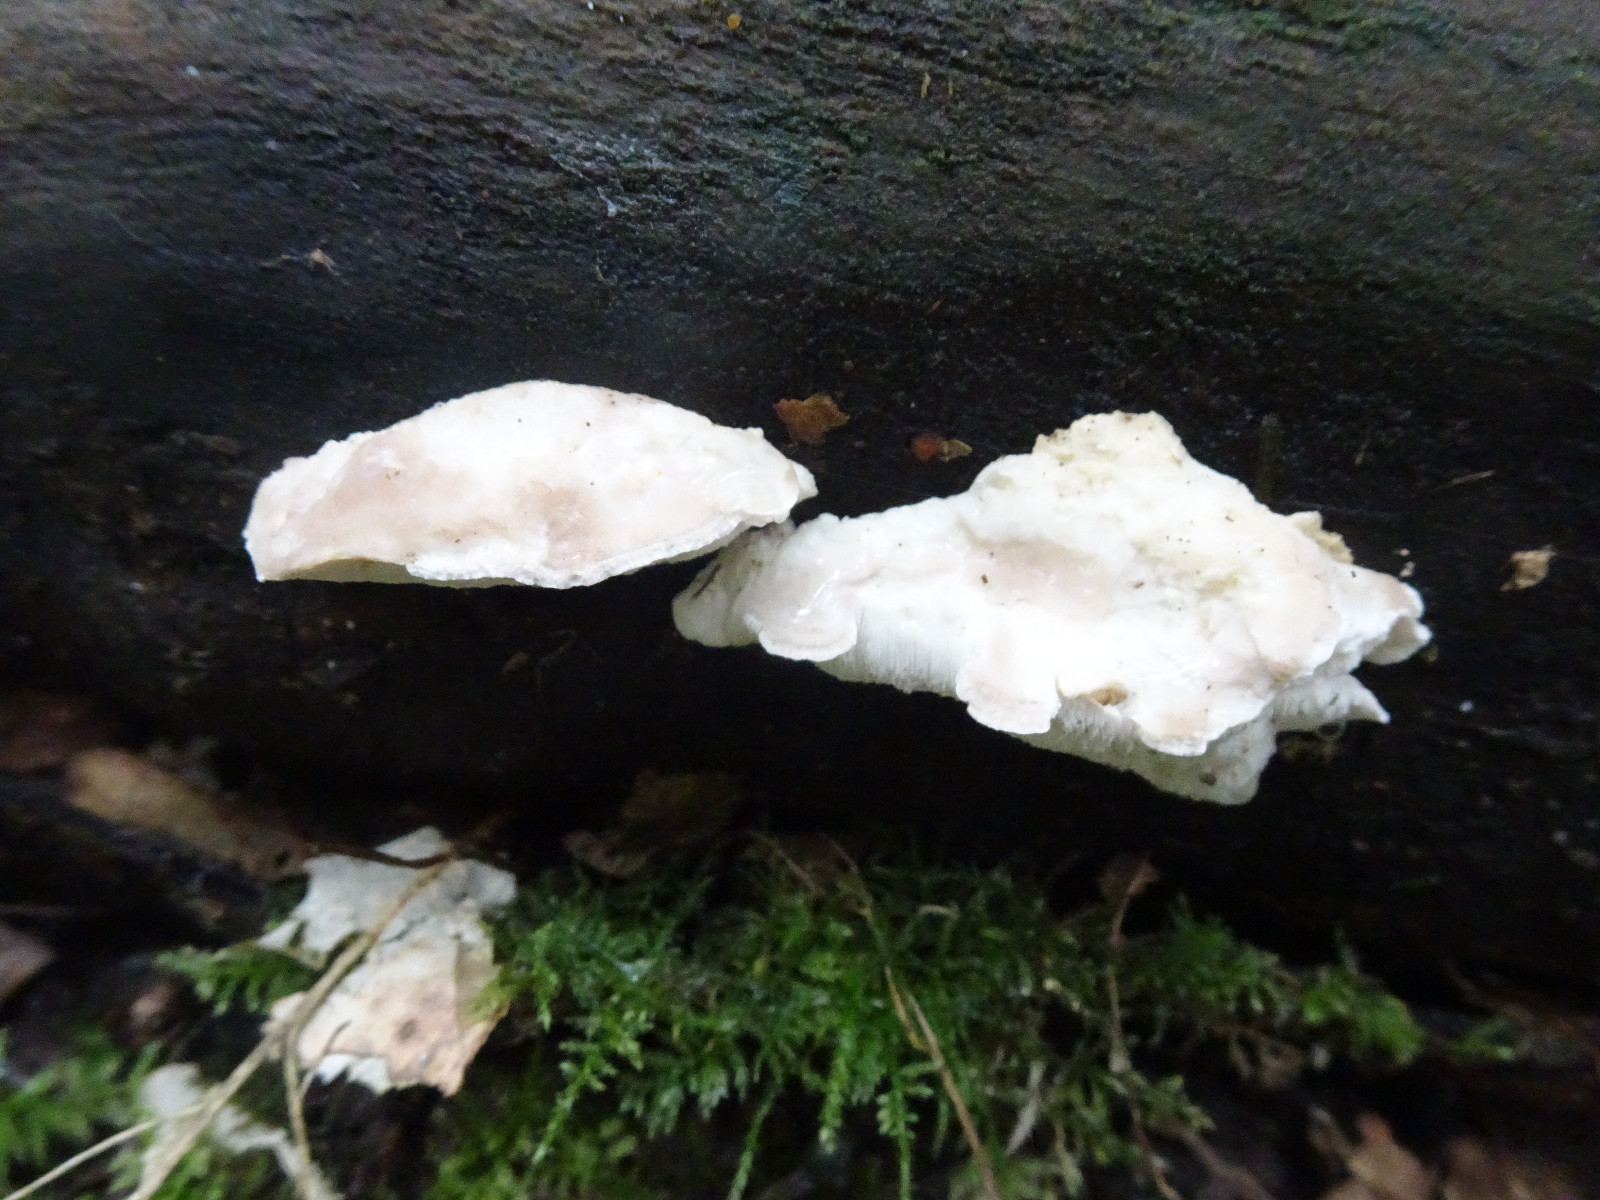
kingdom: Fungi
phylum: Basidiomycota
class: Agaricomycetes
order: Polyporales
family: Incrustoporiaceae
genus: Tyromyces
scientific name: Tyromyces lacteus
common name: mælkehvid kødporesvamp
